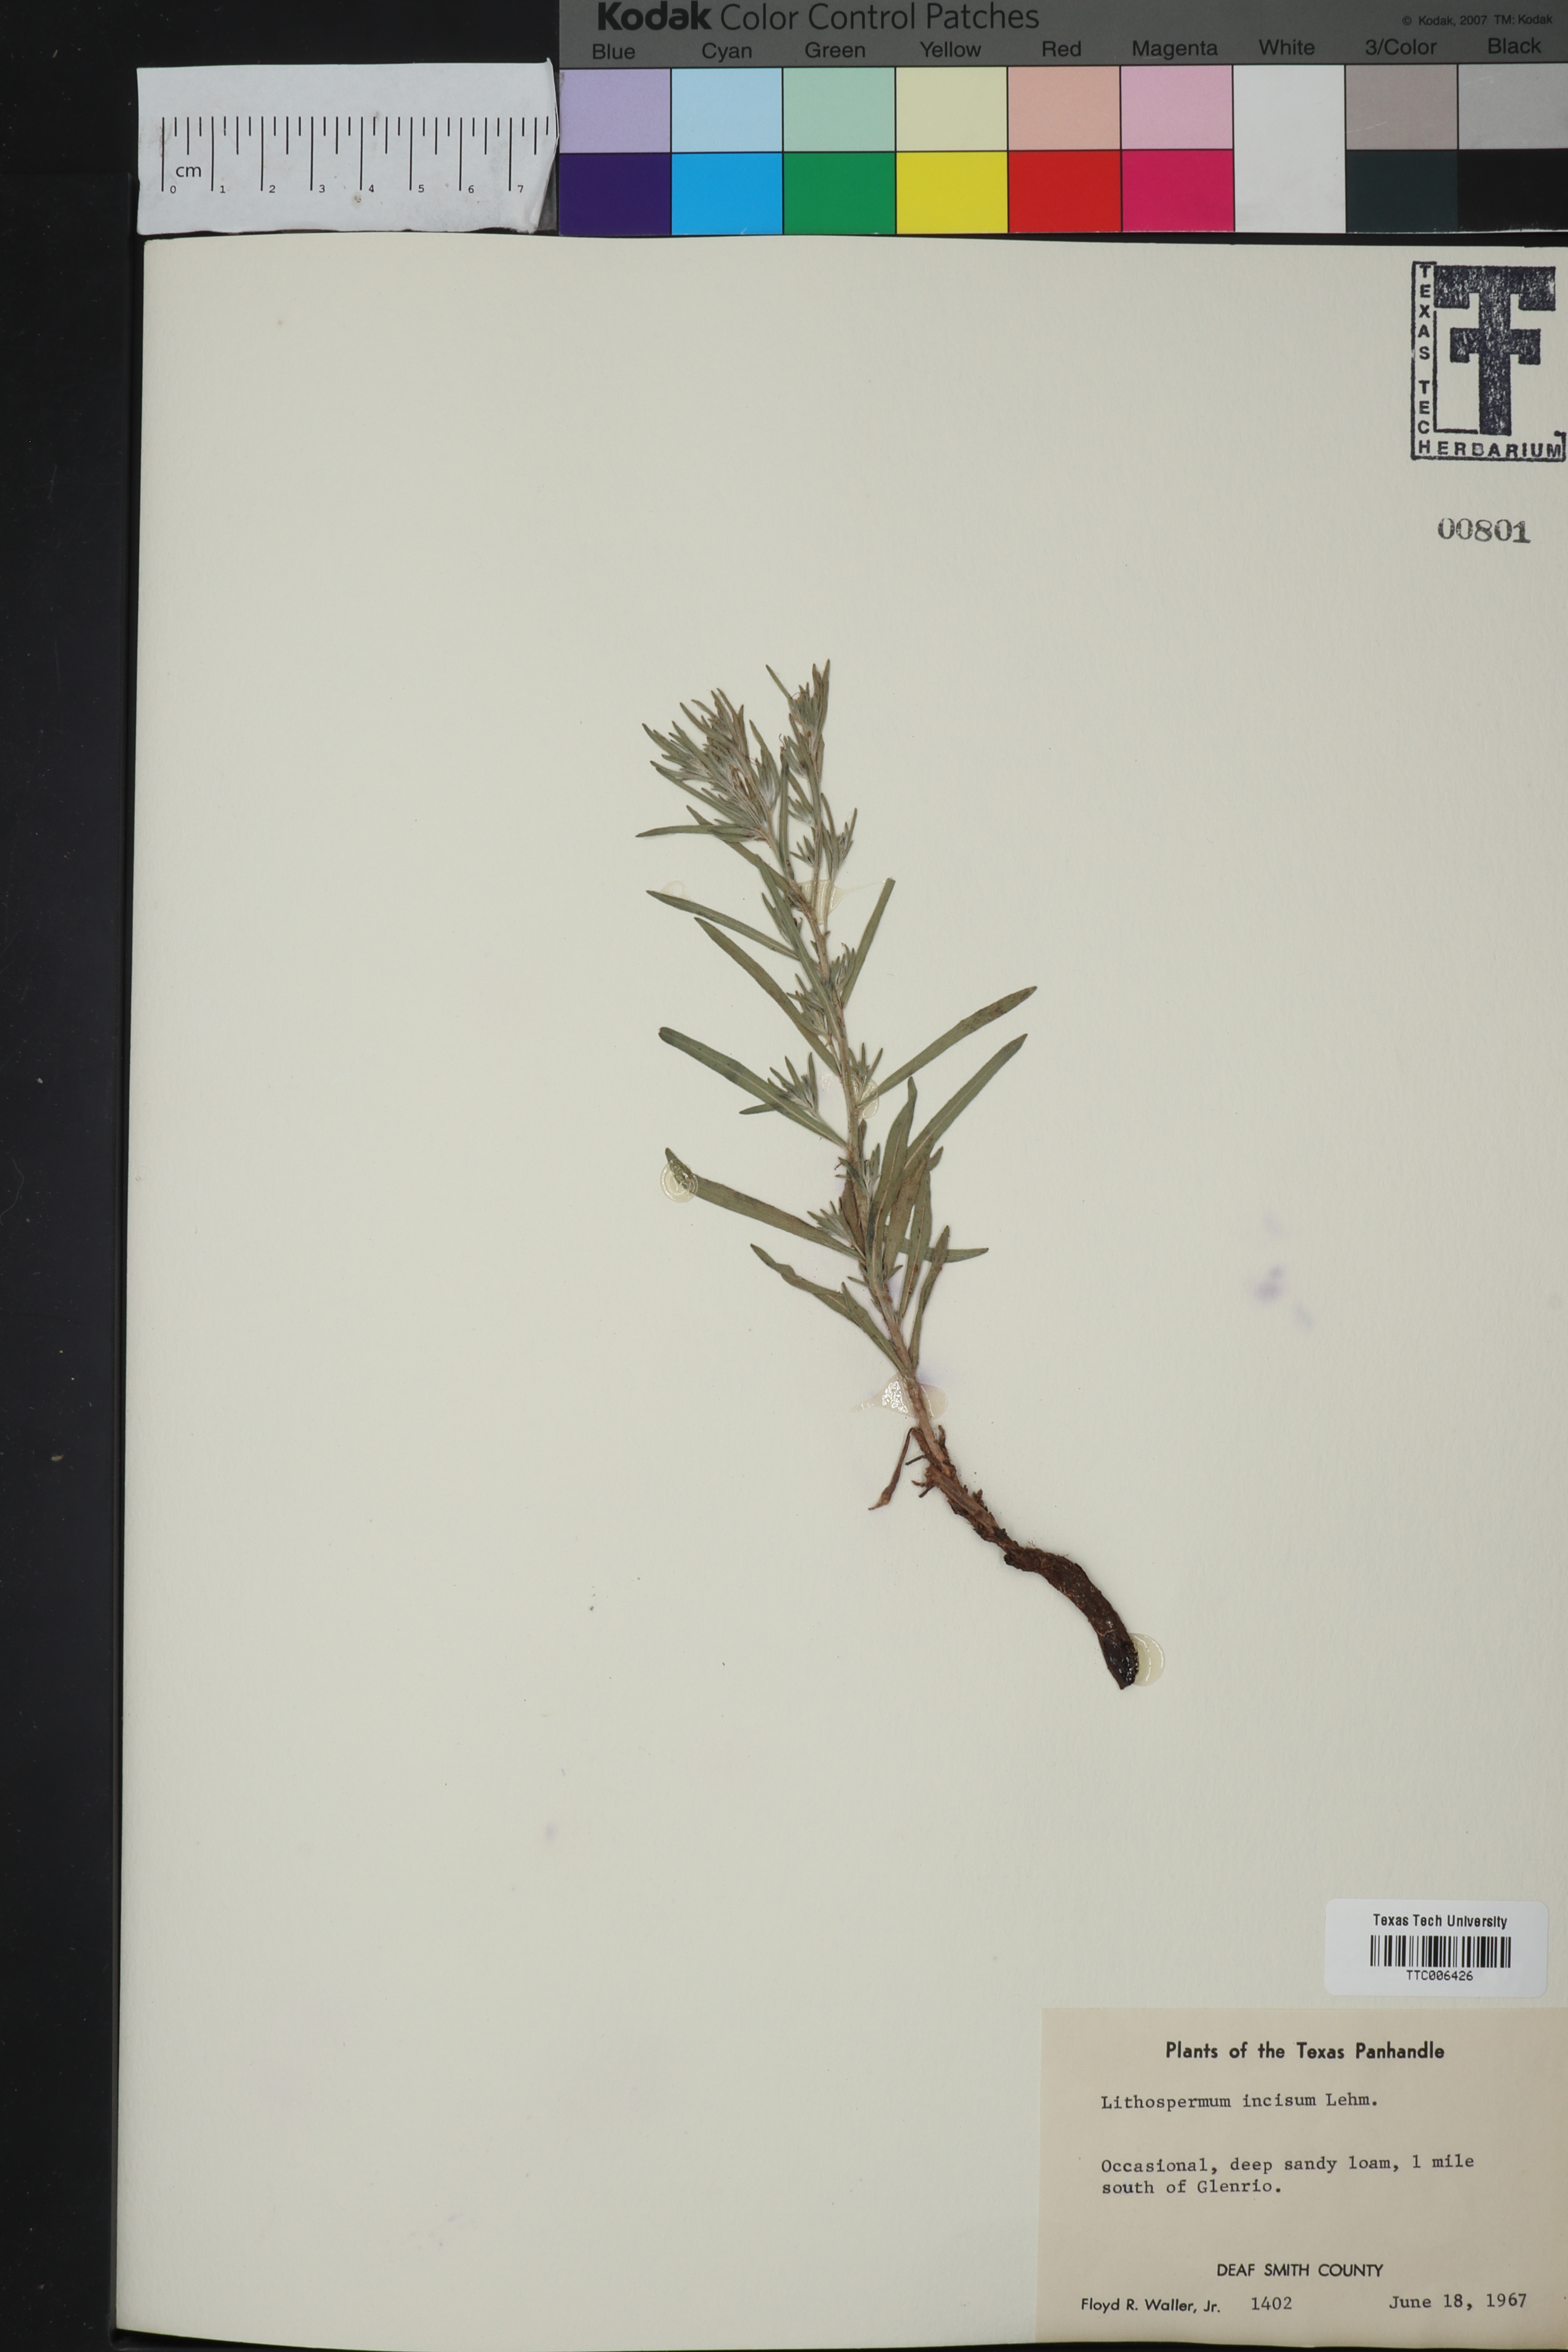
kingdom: Plantae
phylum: Tracheophyta
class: Magnoliopsida
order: Boraginales
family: Boraginaceae
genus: Lithospermum
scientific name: Lithospermum incisum
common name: Fringed gromwell
